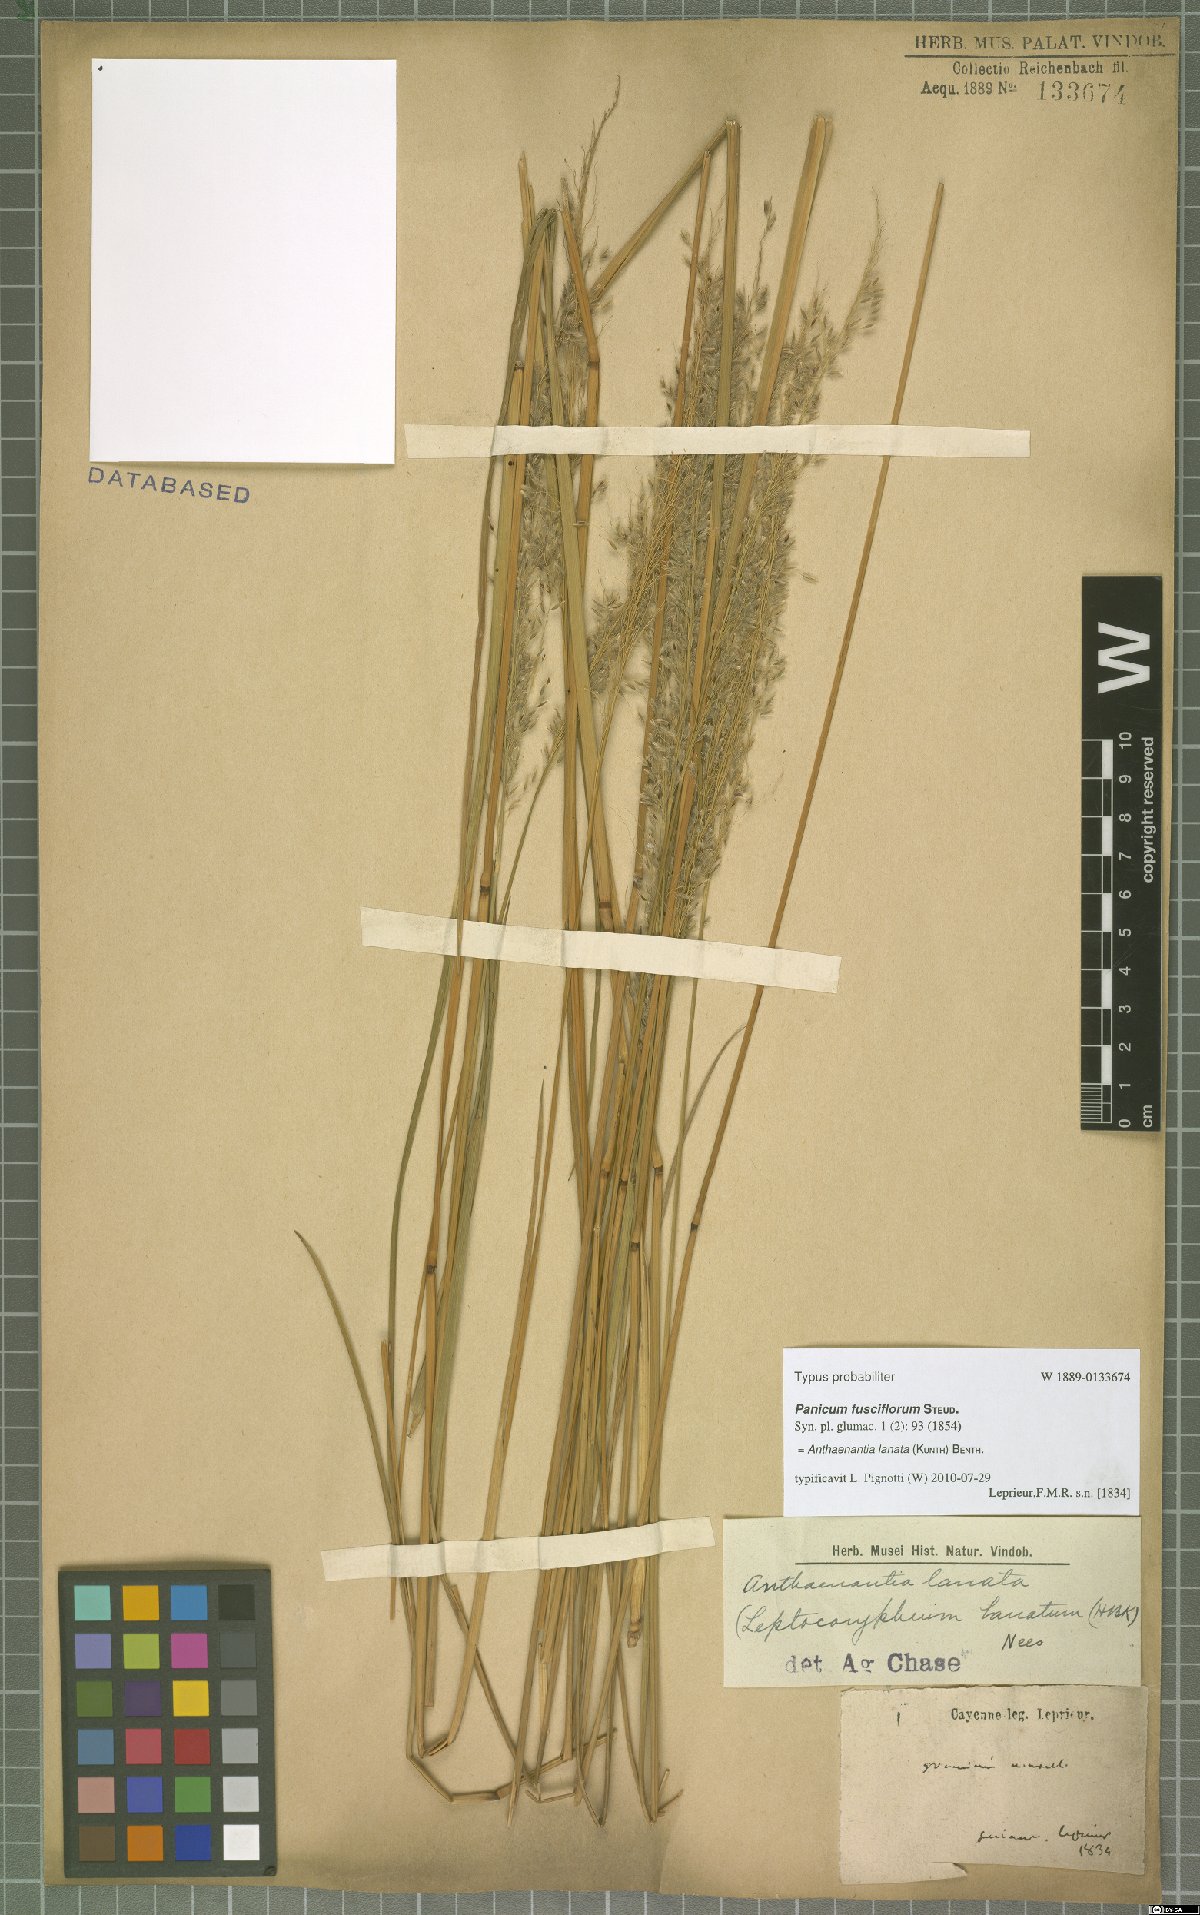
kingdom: Plantae
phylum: Tracheophyta
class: Liliopsida
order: Poales
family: Poaceae
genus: Anthaenantia
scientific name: Anthaenantia lanata
